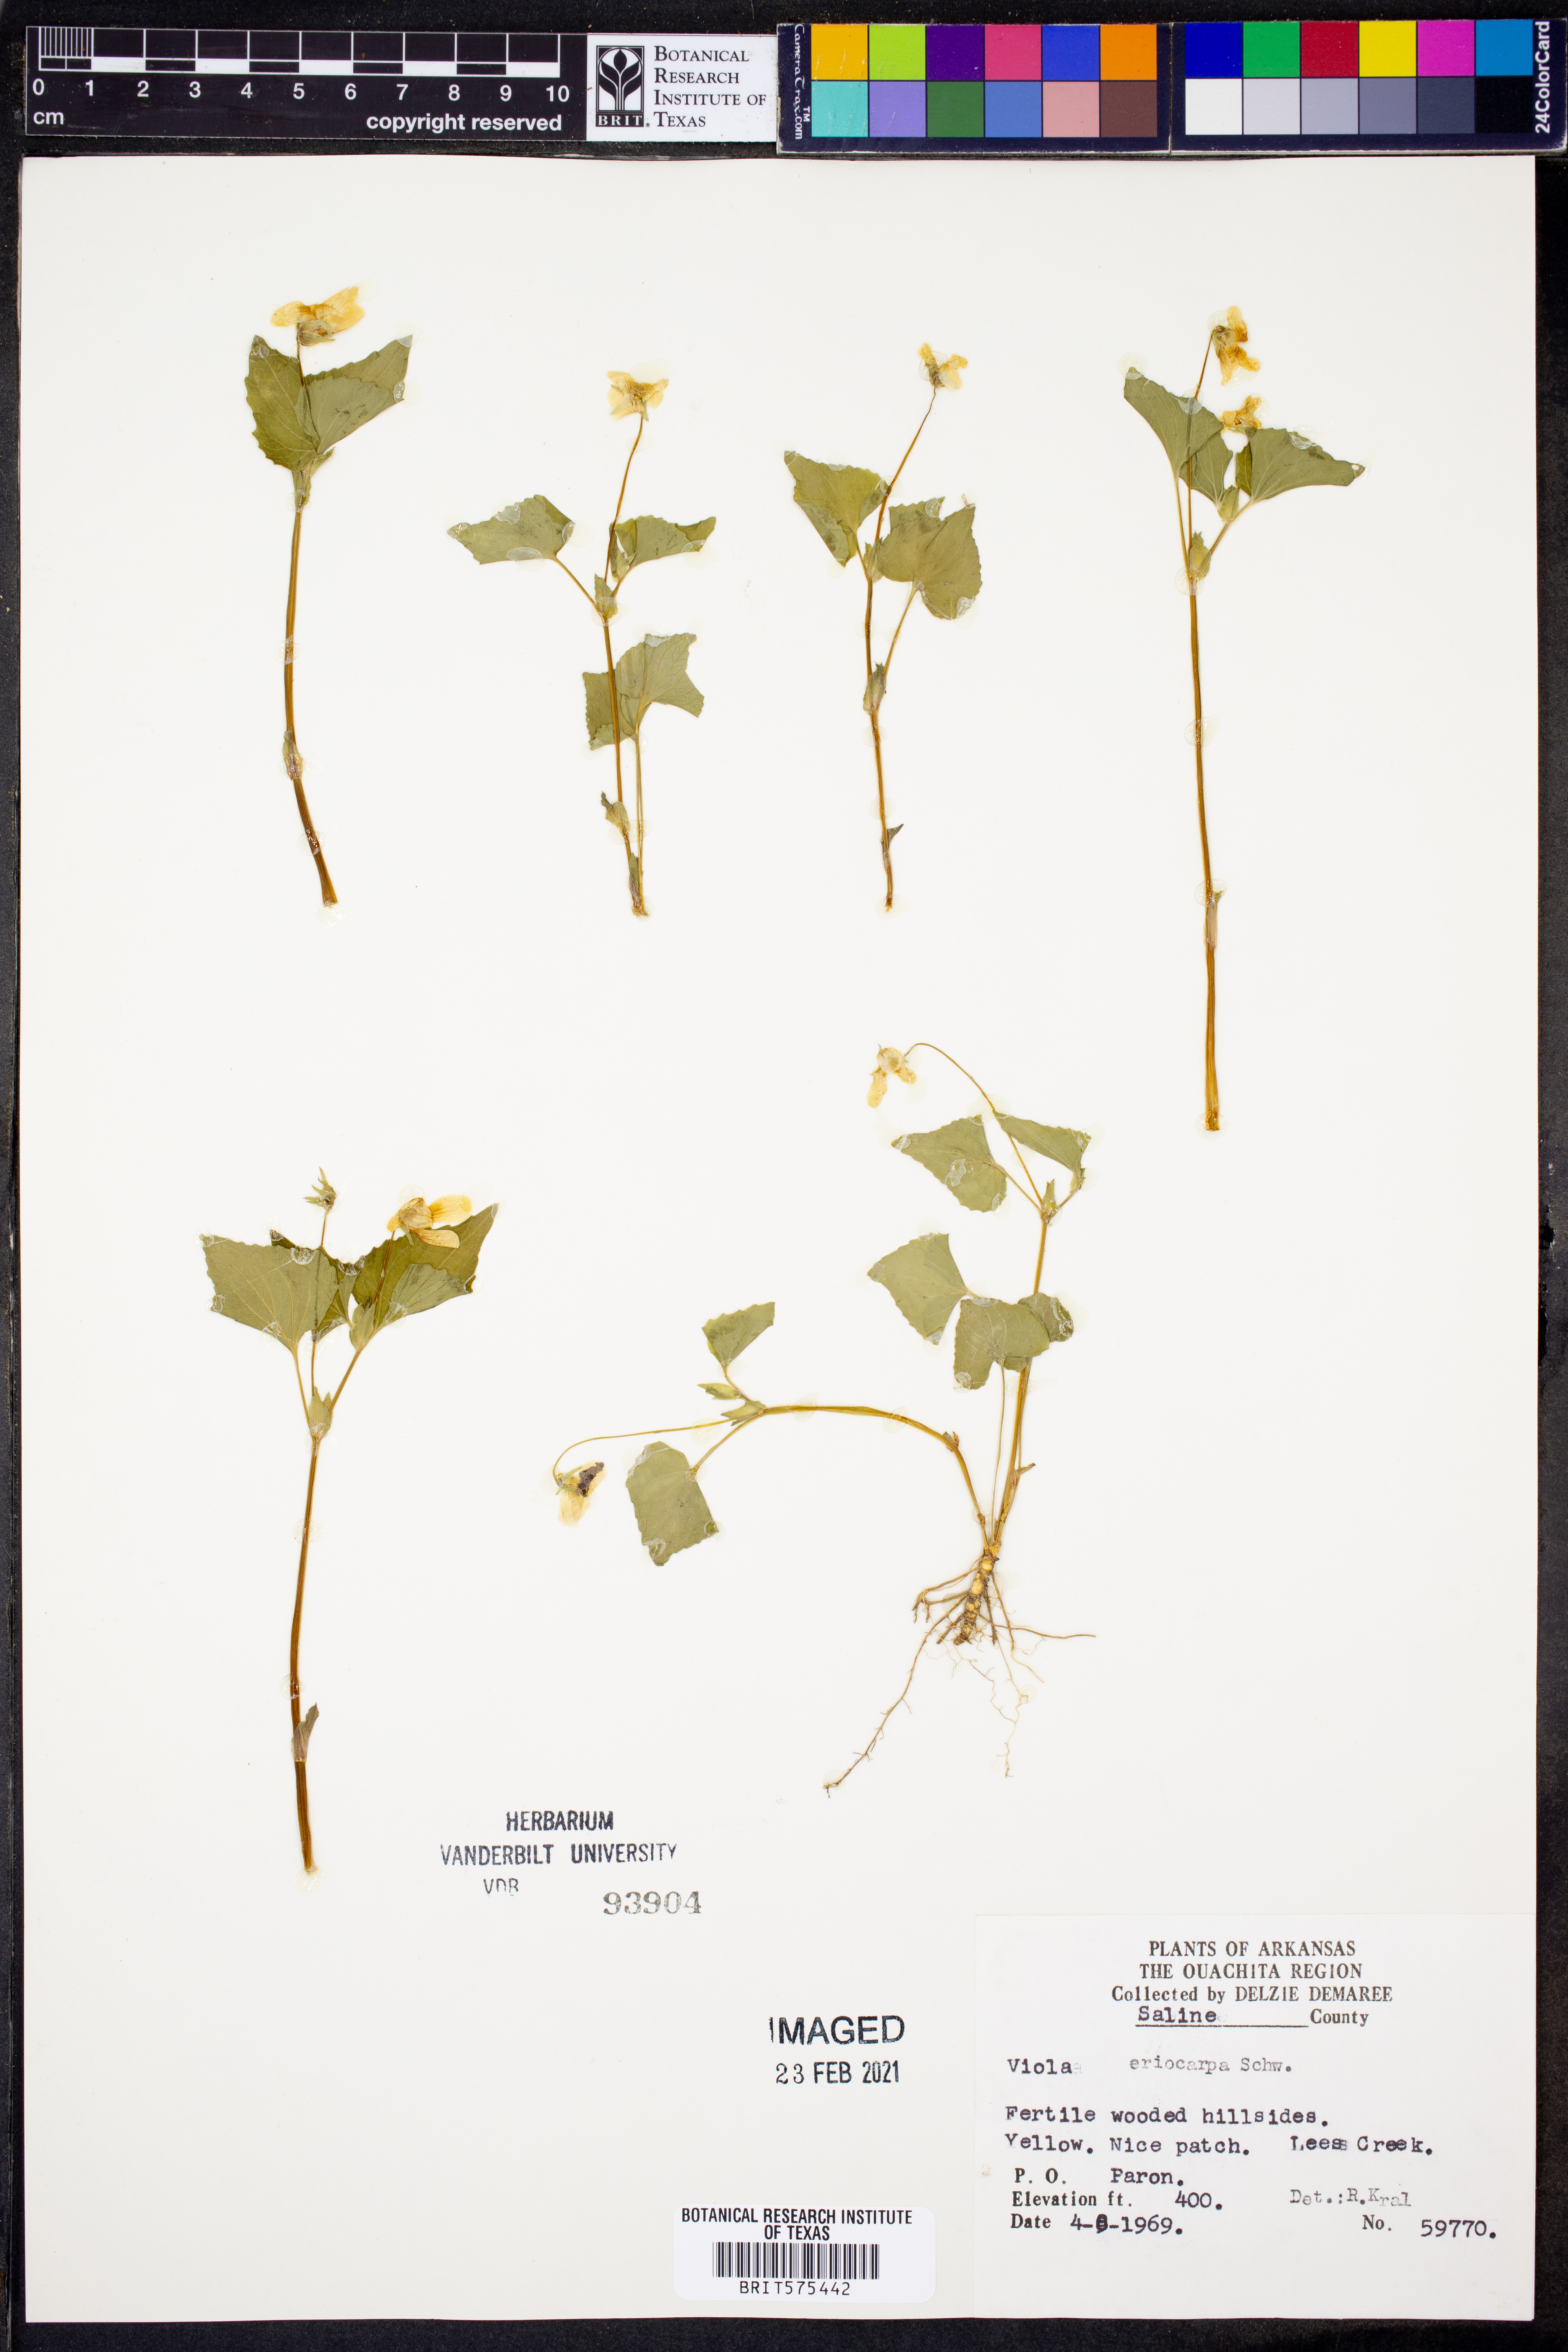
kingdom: Plantae
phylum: Tracheophyta
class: Magnoliopsida
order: Malpighiales
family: Violaceae
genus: Viola
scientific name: Viola eriocarpa
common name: Smooth yellow violet
